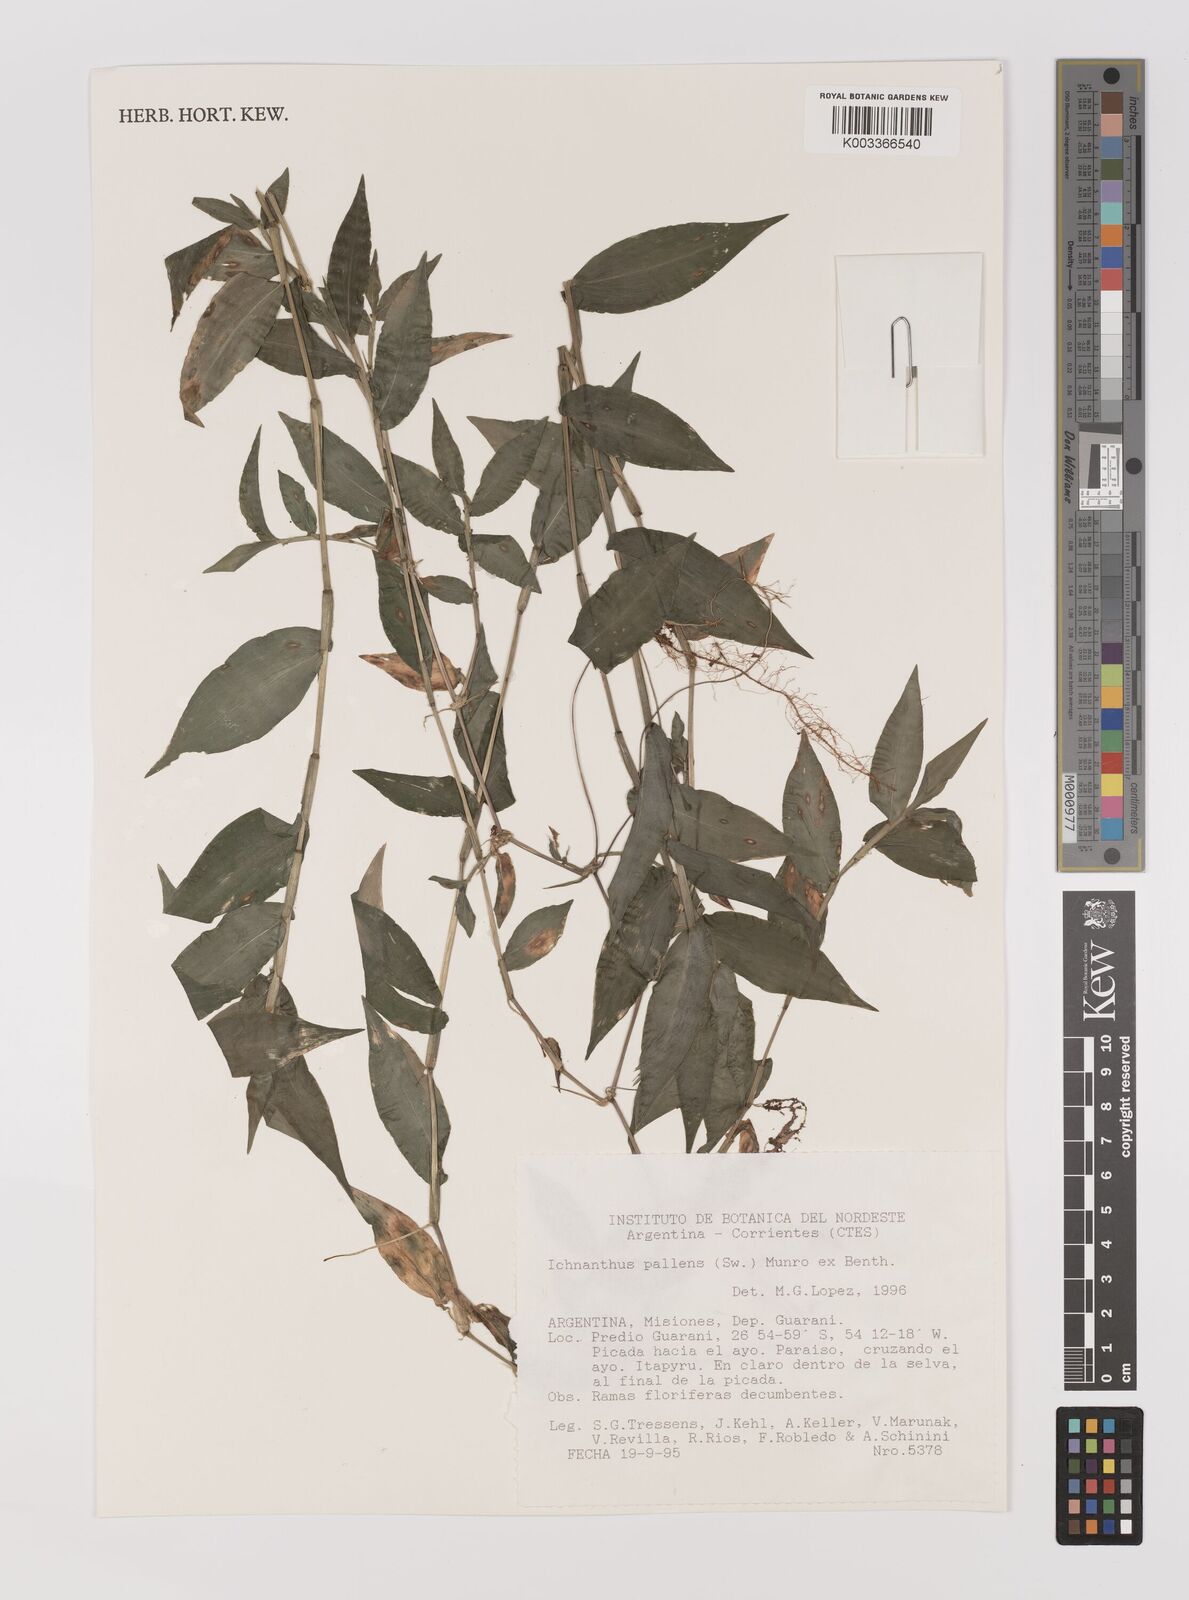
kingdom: Plantae
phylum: Tracheophyta
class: Liliopsida
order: Poales
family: Poaceae
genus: Ichnanthus
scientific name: Ichnanthus pallens
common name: Water grass
